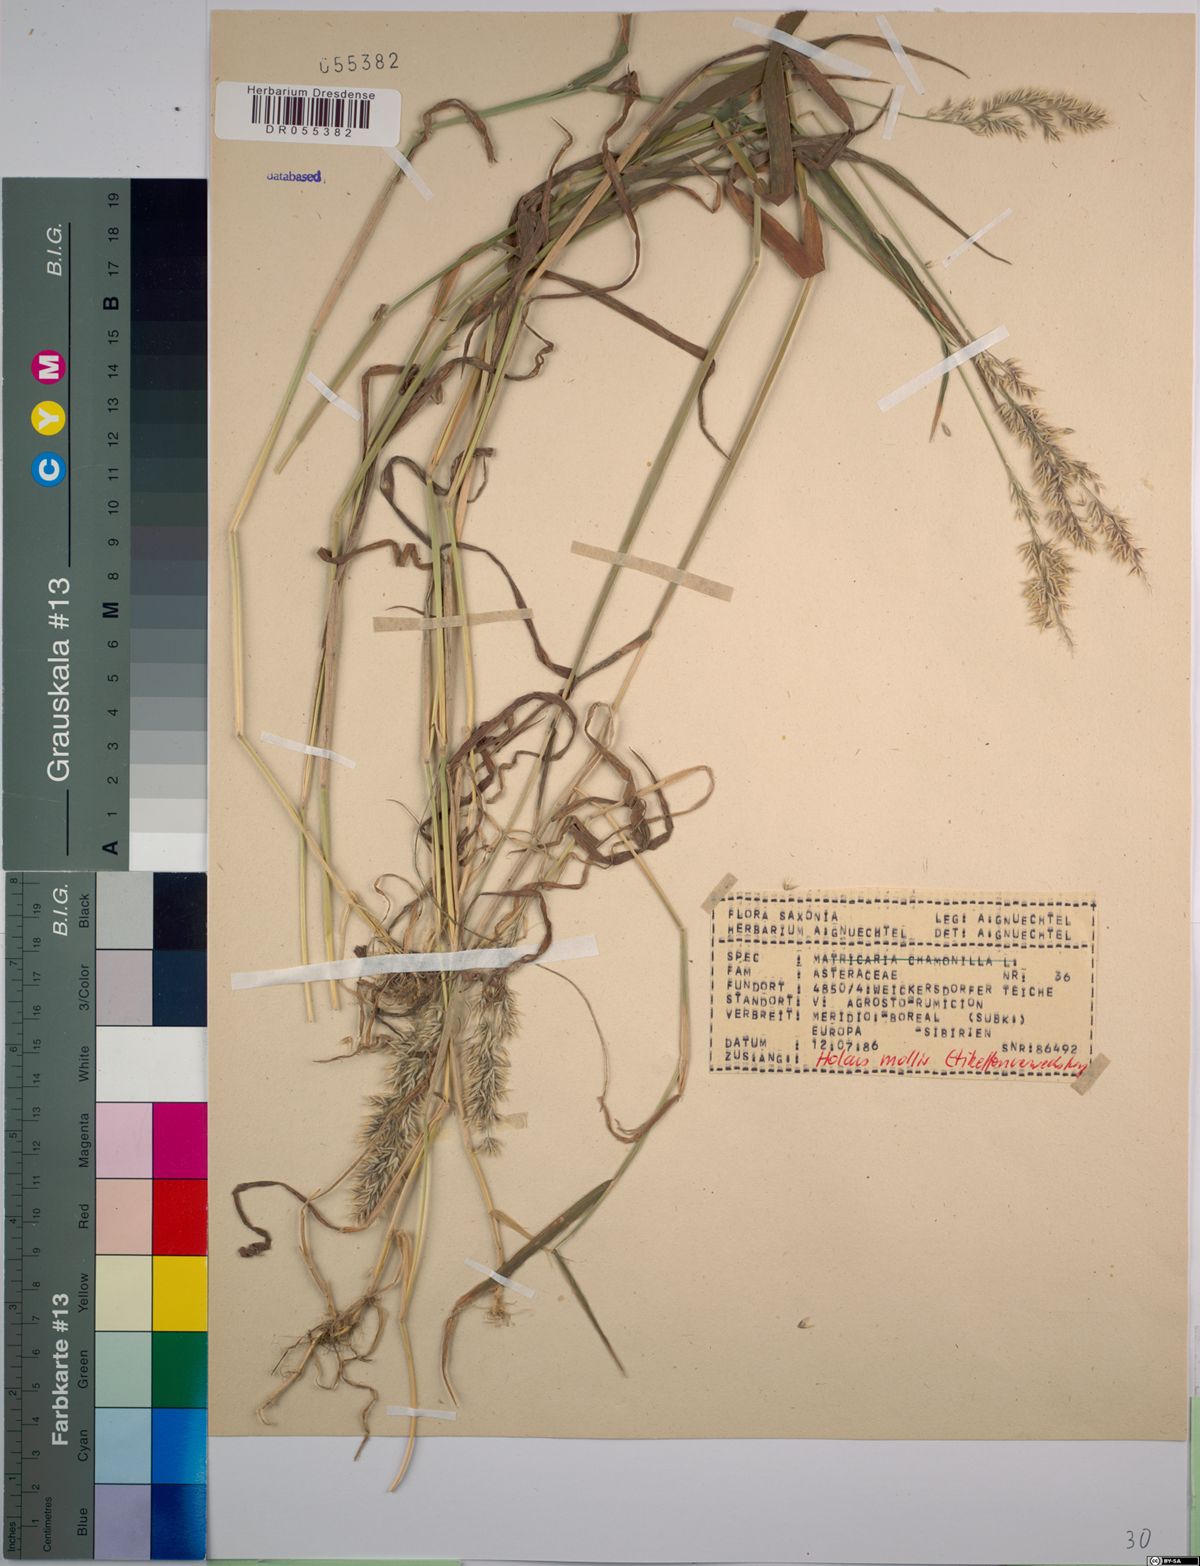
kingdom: Plantae
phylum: Tracheophyta
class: Liliopsida
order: Poales
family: Poaceae
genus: Holcus
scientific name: Holcus mollis
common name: Creeping velvetgrass
